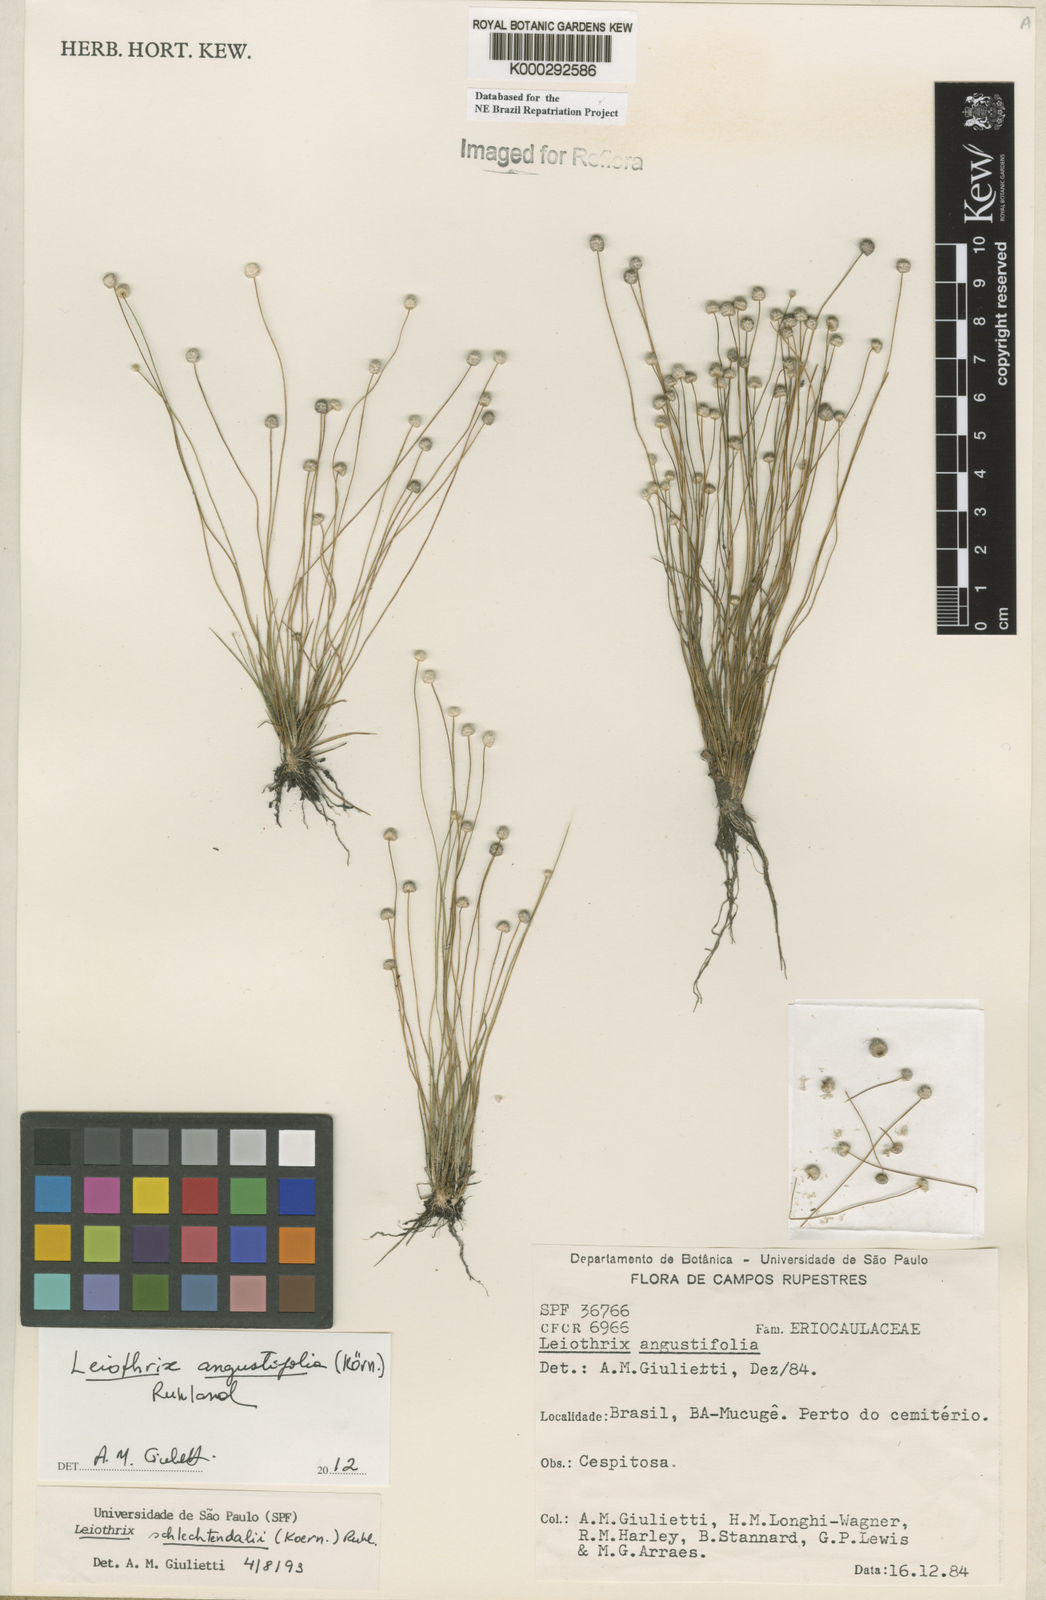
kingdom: Plantae
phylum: Tracheophyta
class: Liliopsida
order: Poales
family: Eriocaulaceae
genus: Leiothrix
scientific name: Leiothrix schlechtendalii
